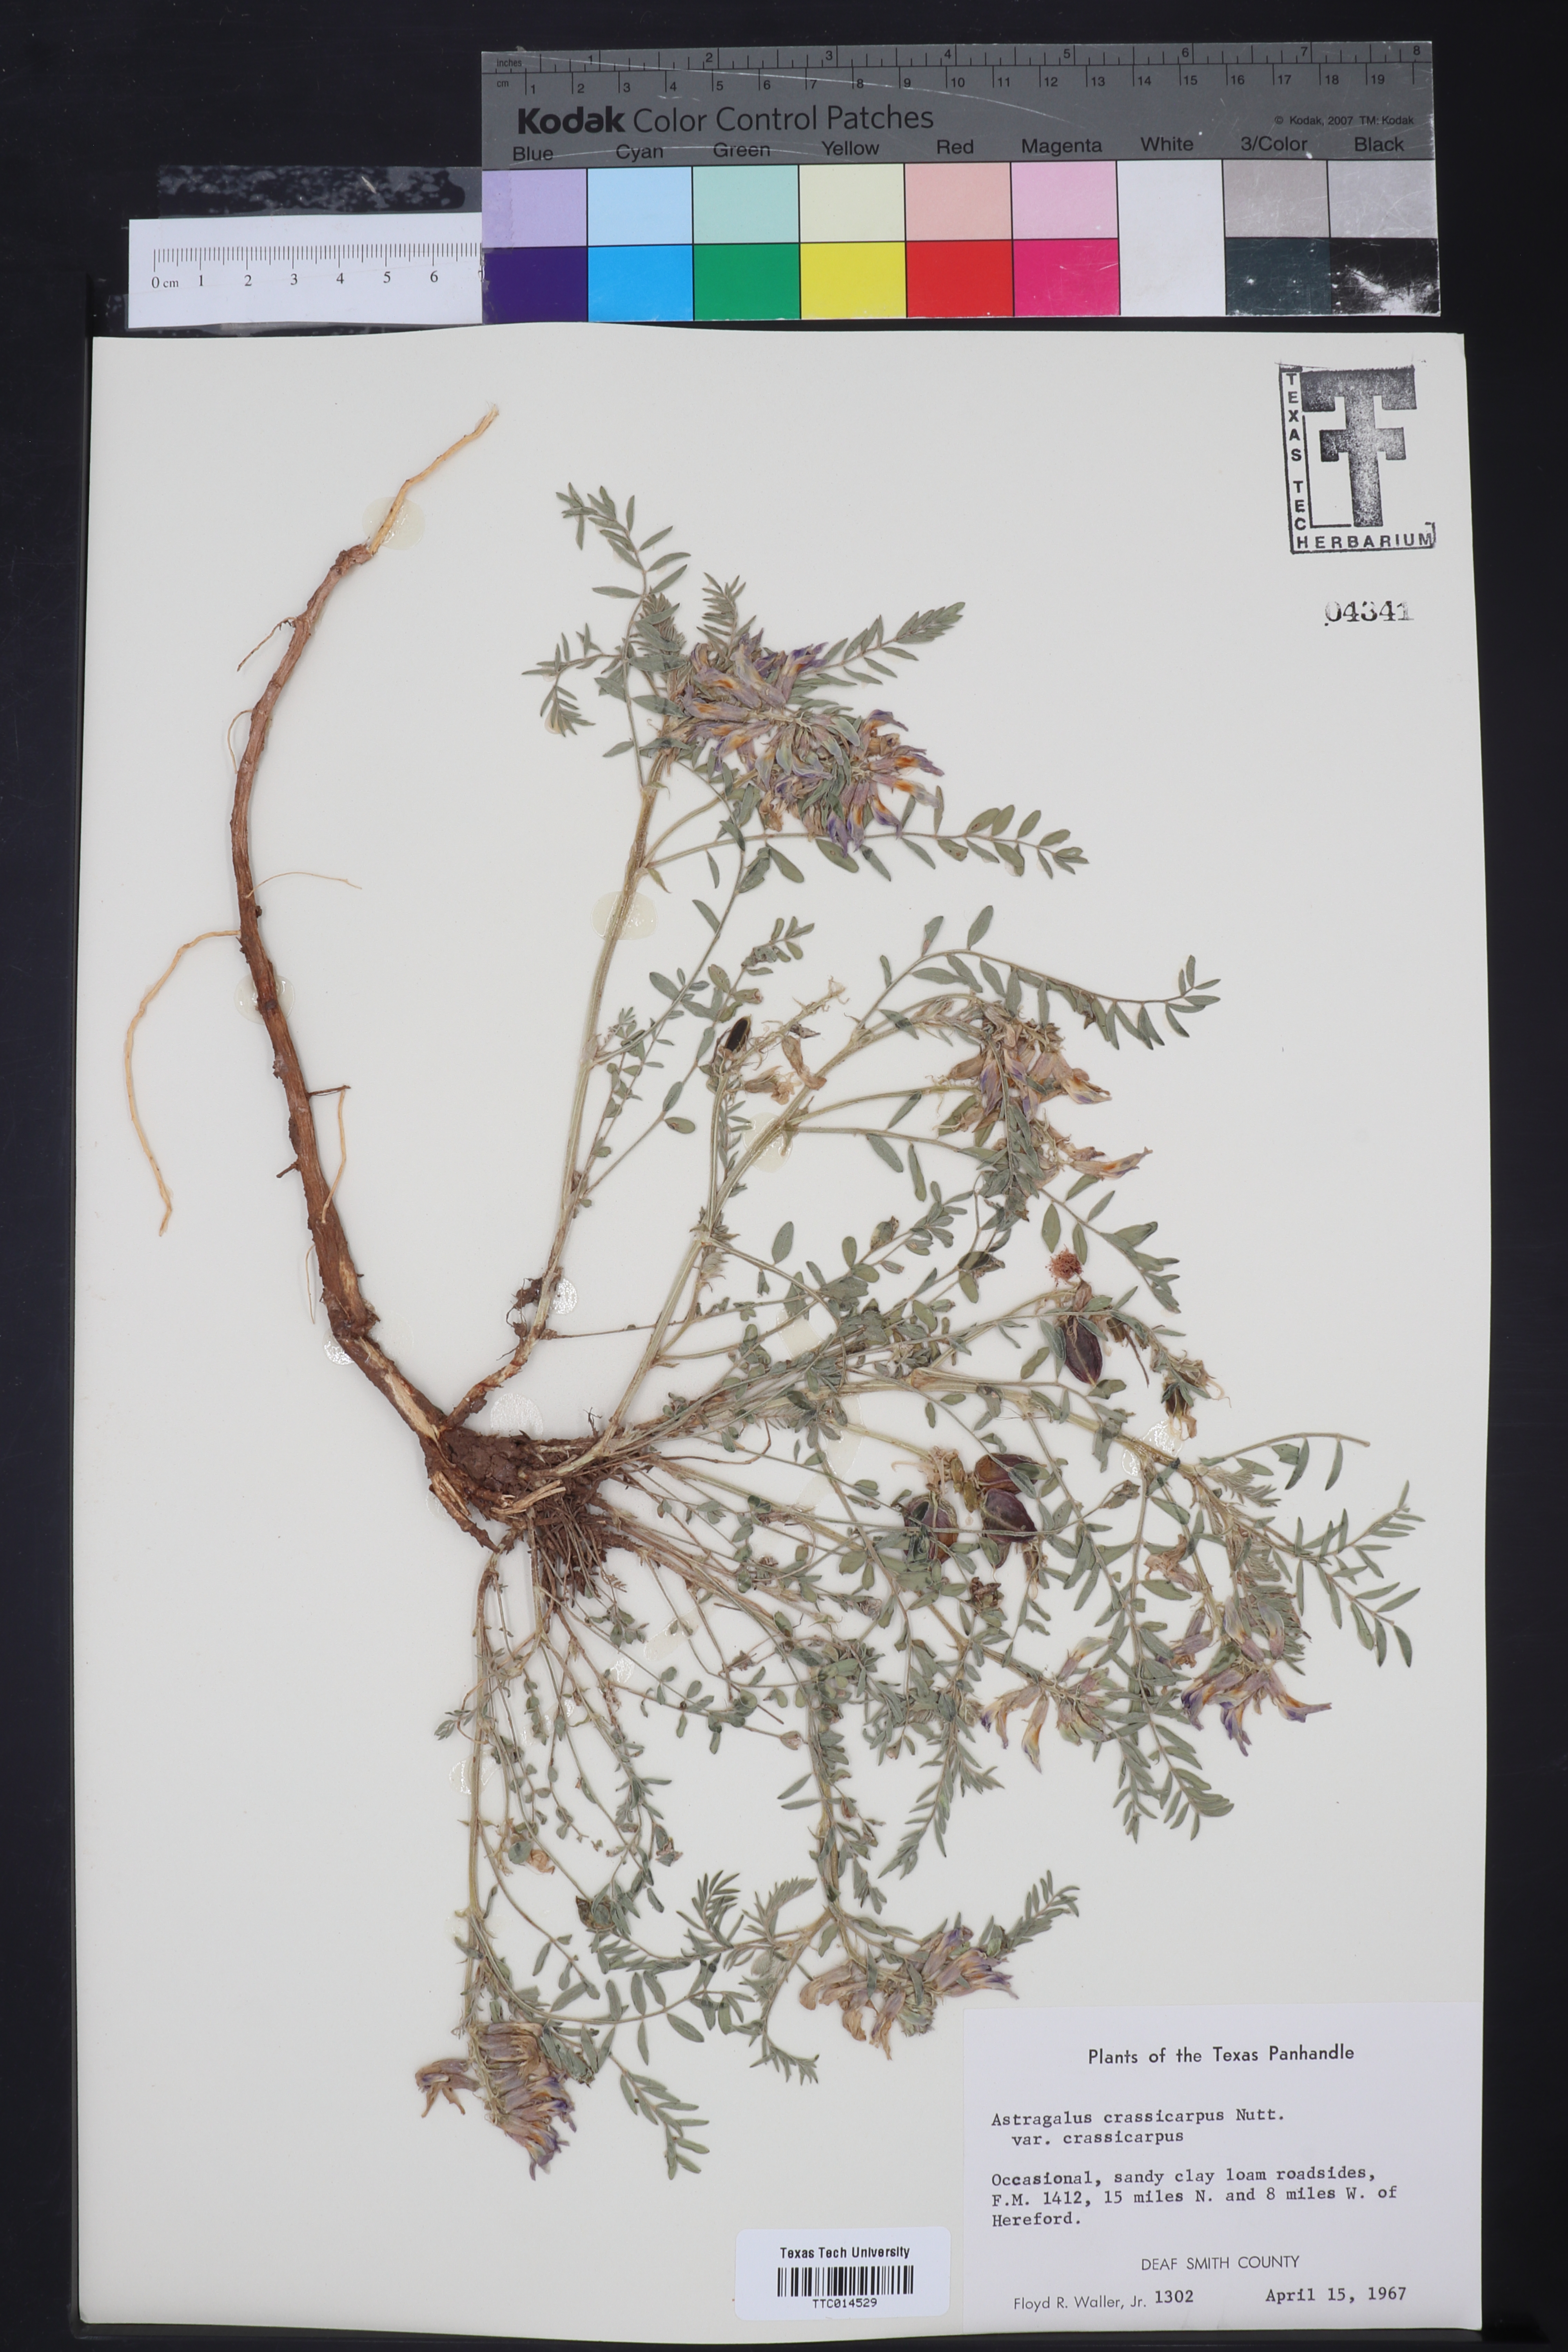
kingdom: Plantae
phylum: Tracheophyta
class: Magnoliopsida
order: Fabales
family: Fabaceae
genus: Astragalus
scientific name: Astragalus crassicarpus
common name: Ground-plum milk-vetch
